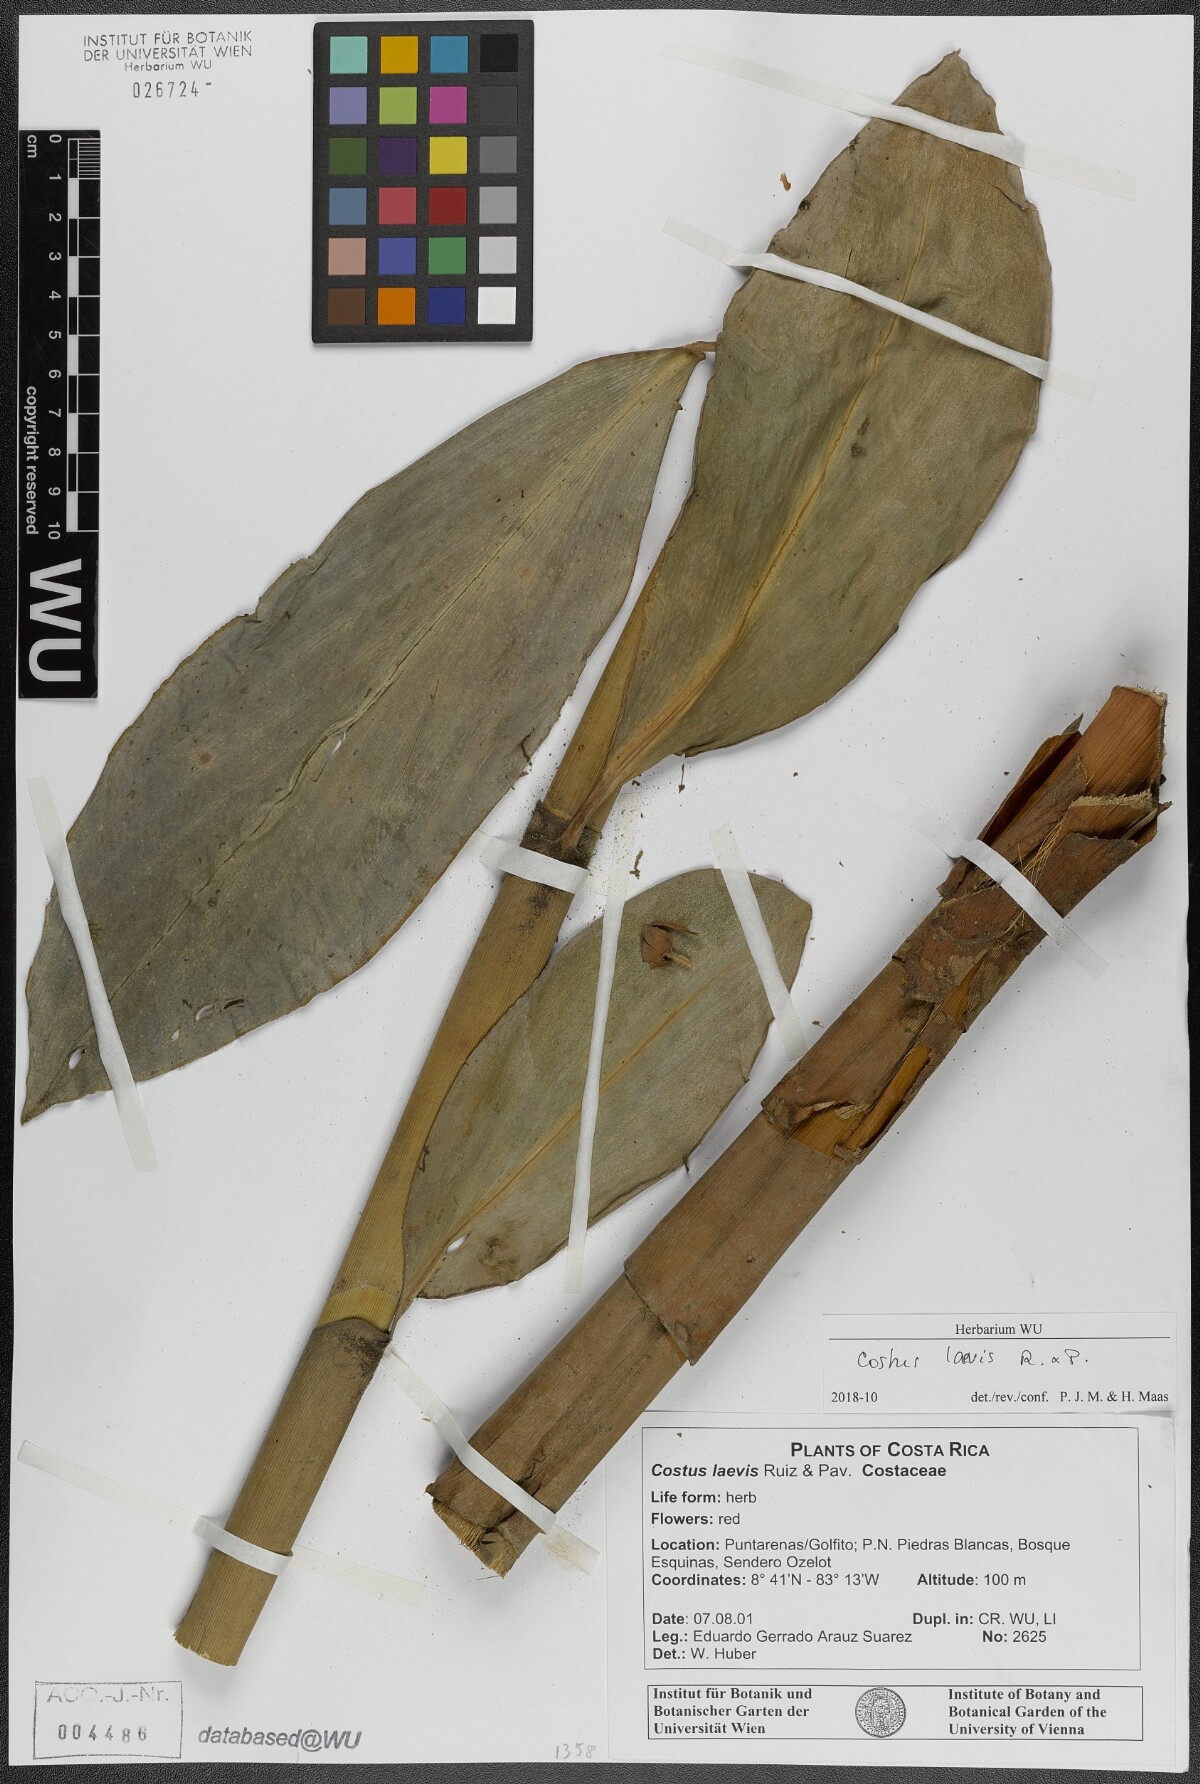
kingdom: Plantae
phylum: Tracheophyta
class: Liliopsida
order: Zingiberales
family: Costaceae
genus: Costus
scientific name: Costus laevis
